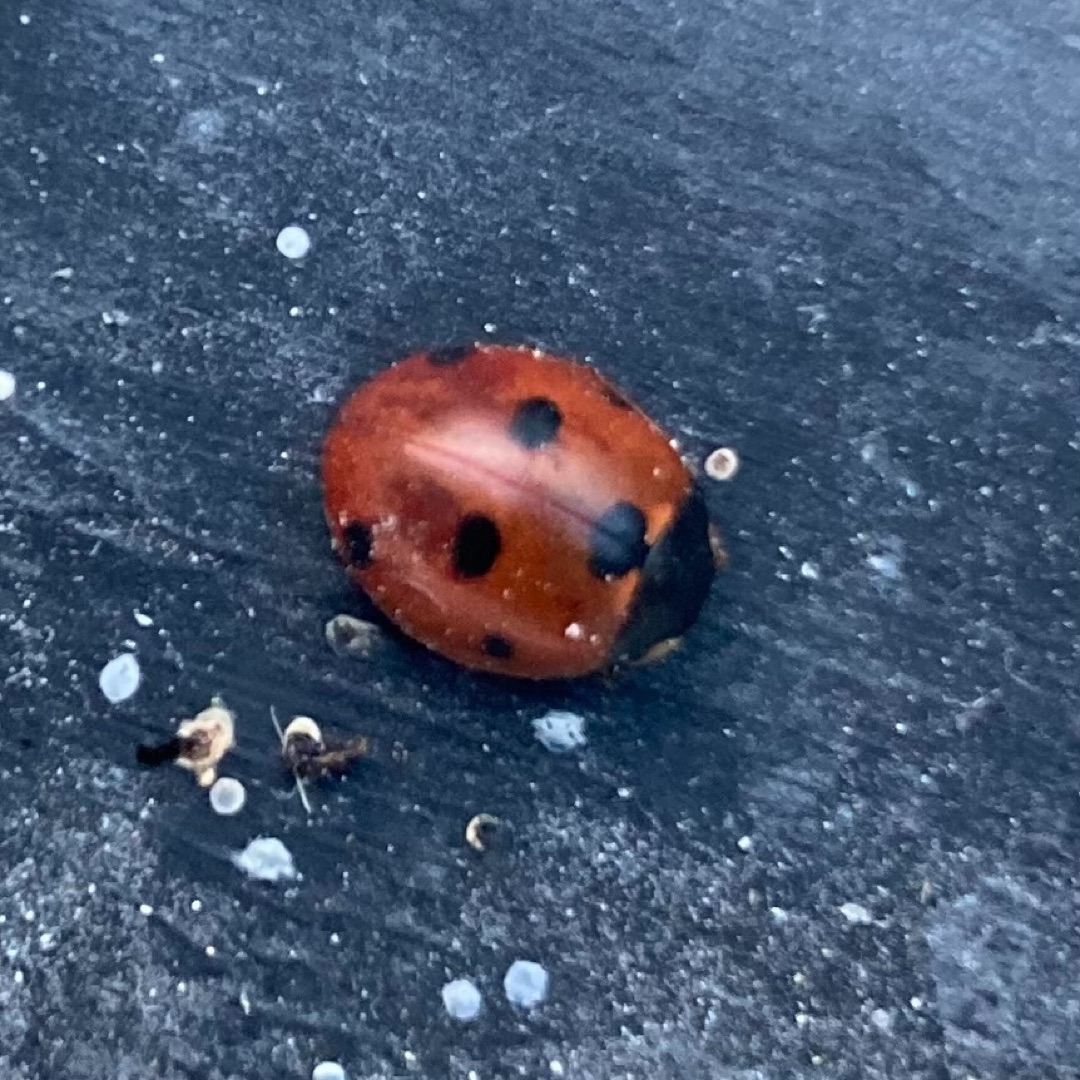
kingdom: Animalia
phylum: Arthropoda
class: Insecta
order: Coleoptera
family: Coccinellidae
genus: Coccinella
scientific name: Coccinella septempunctata
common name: Syvplettet mariehøne
